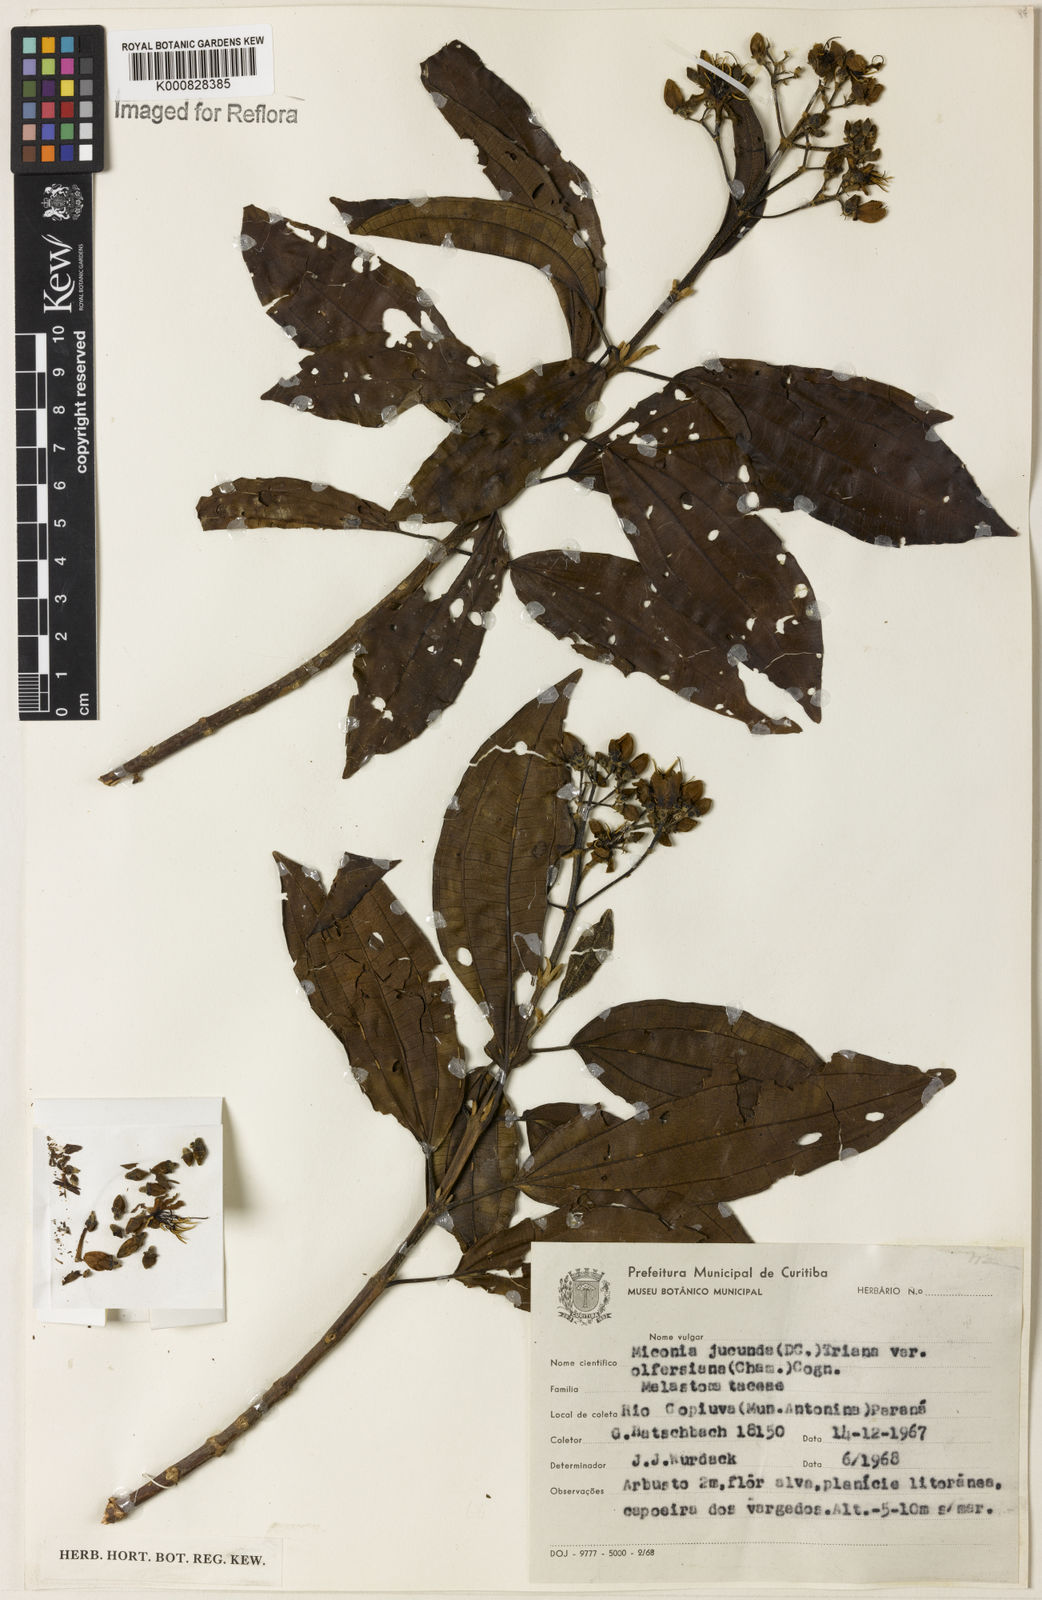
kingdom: Plantae
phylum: Tracheophyta
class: Magnoliopsida
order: Myrtales
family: Melastomataceae
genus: Miconia
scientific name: Miconia jucunda
